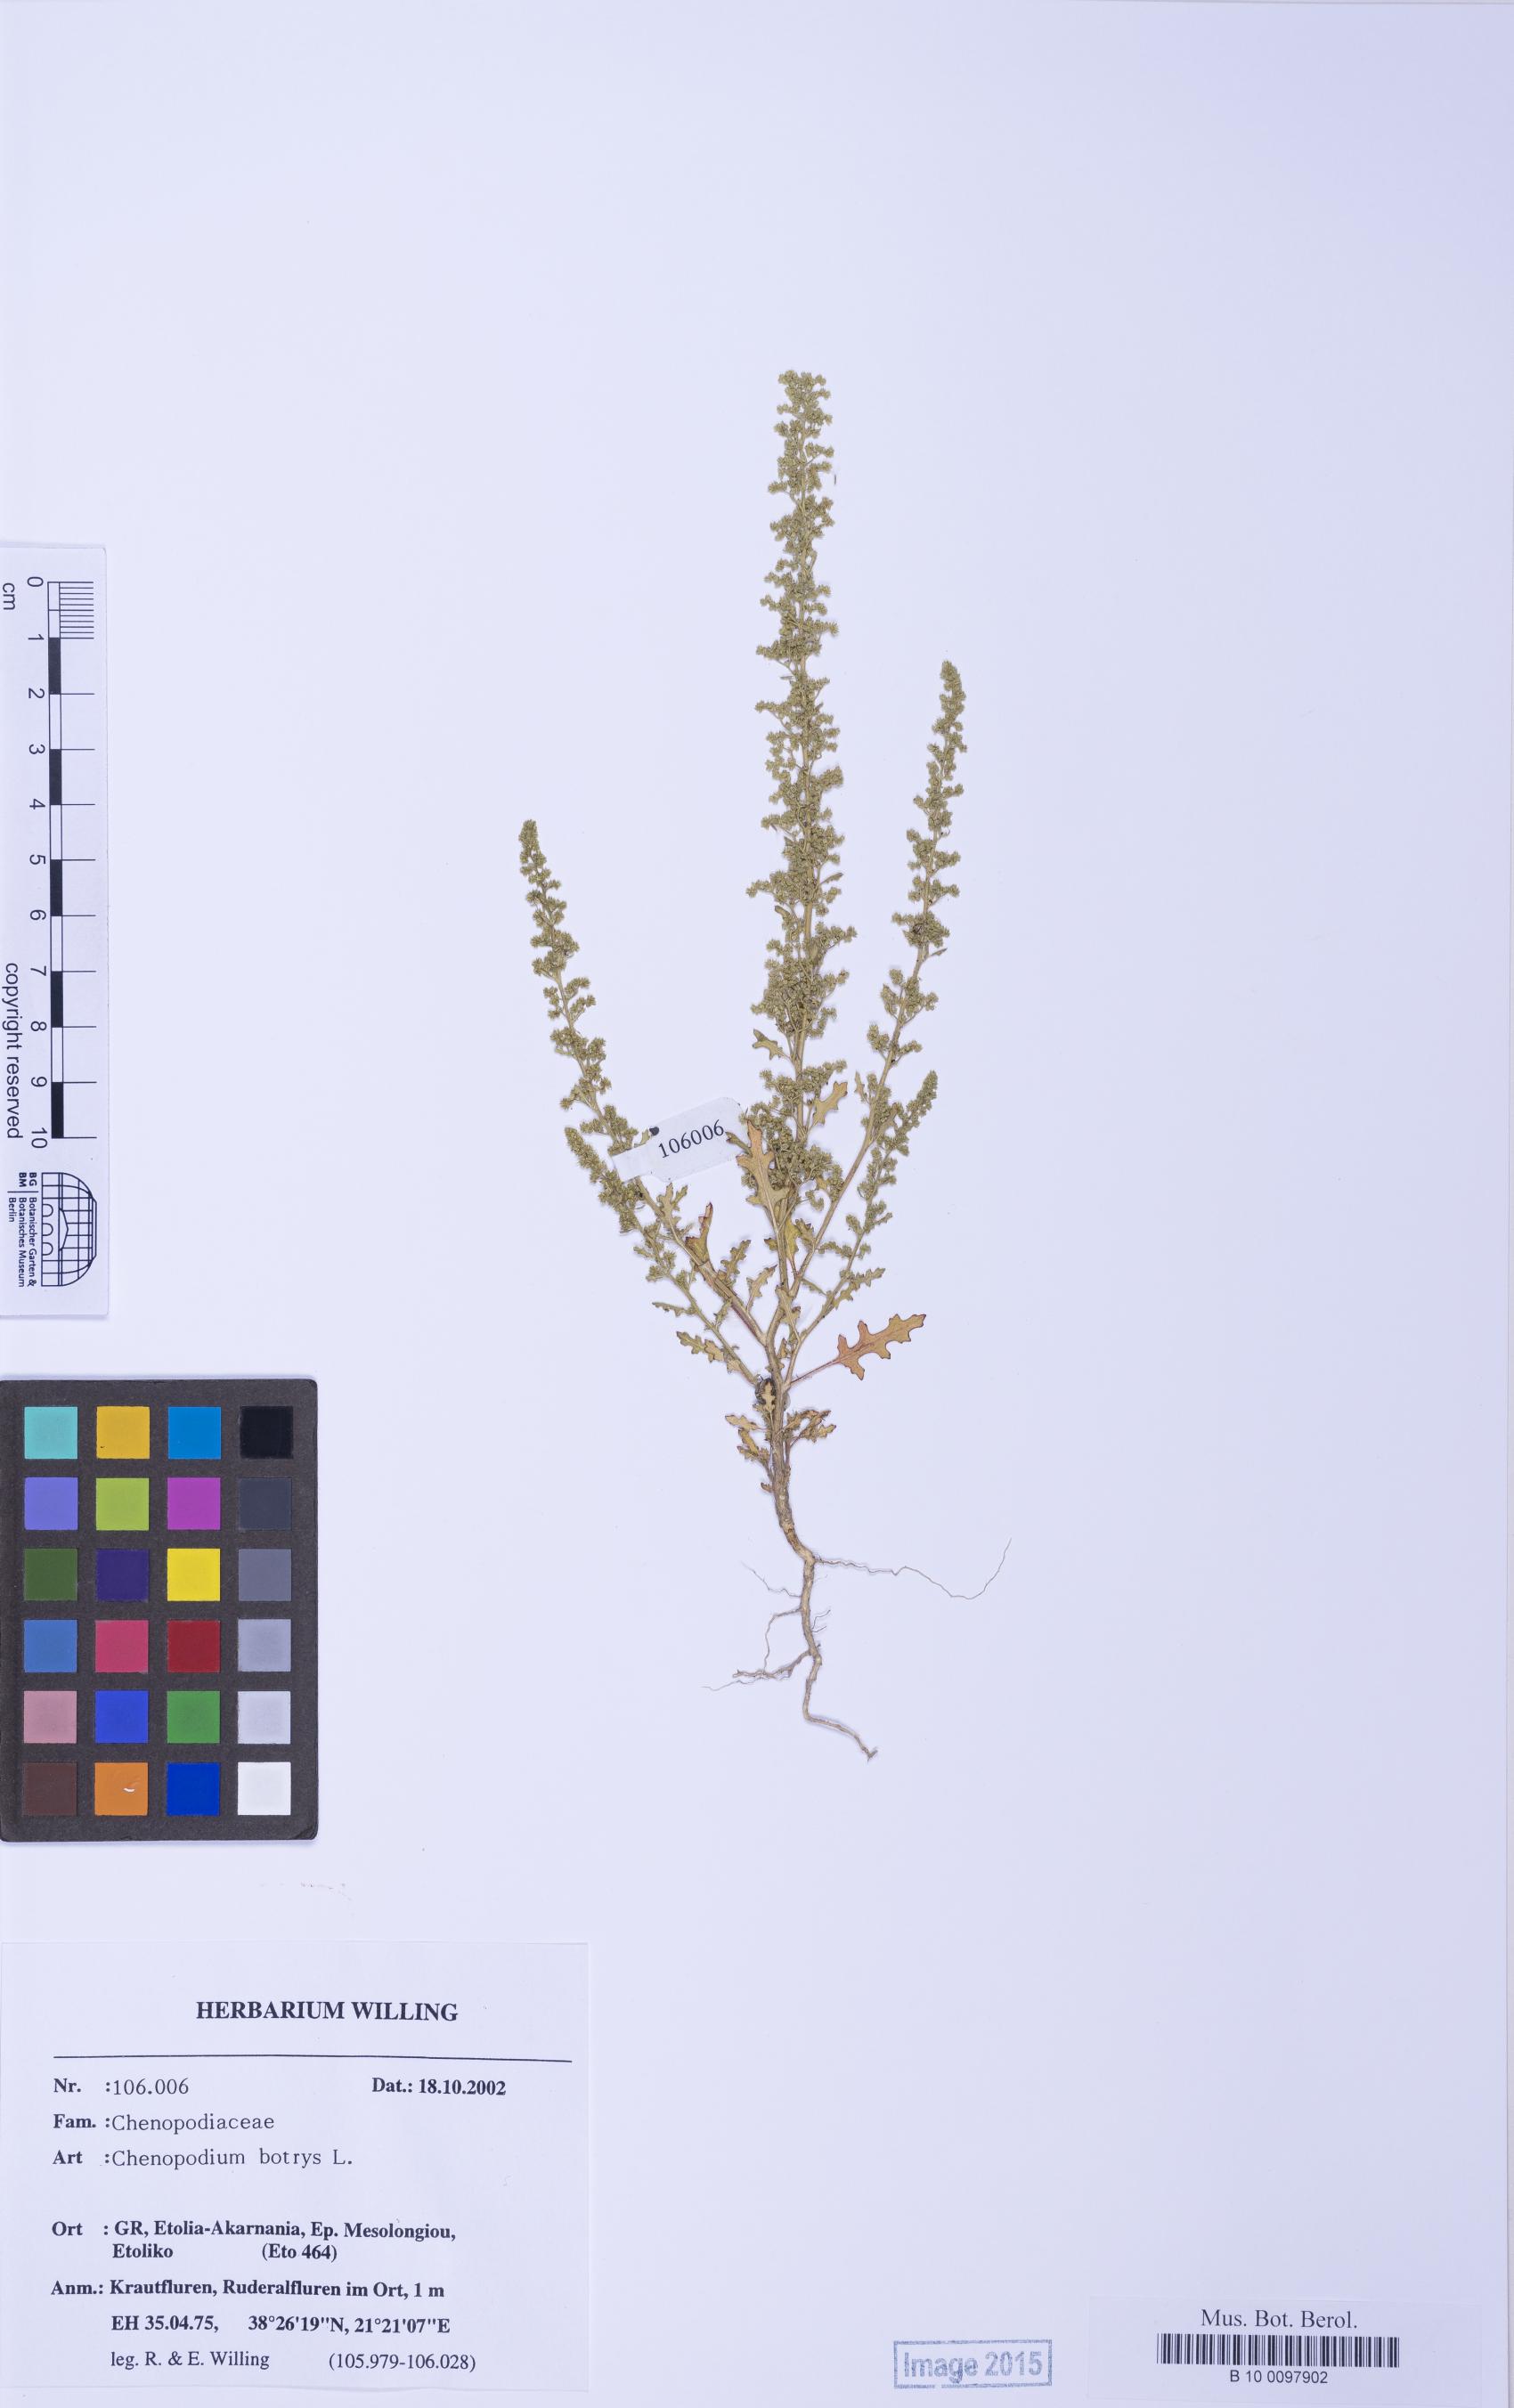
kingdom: Plantae
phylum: Tracheophyta
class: Magnoliopsida
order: Caryophyllales
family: Amaranthaceae
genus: Dysphania
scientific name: Dysphania botrys
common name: Feather-geranium
